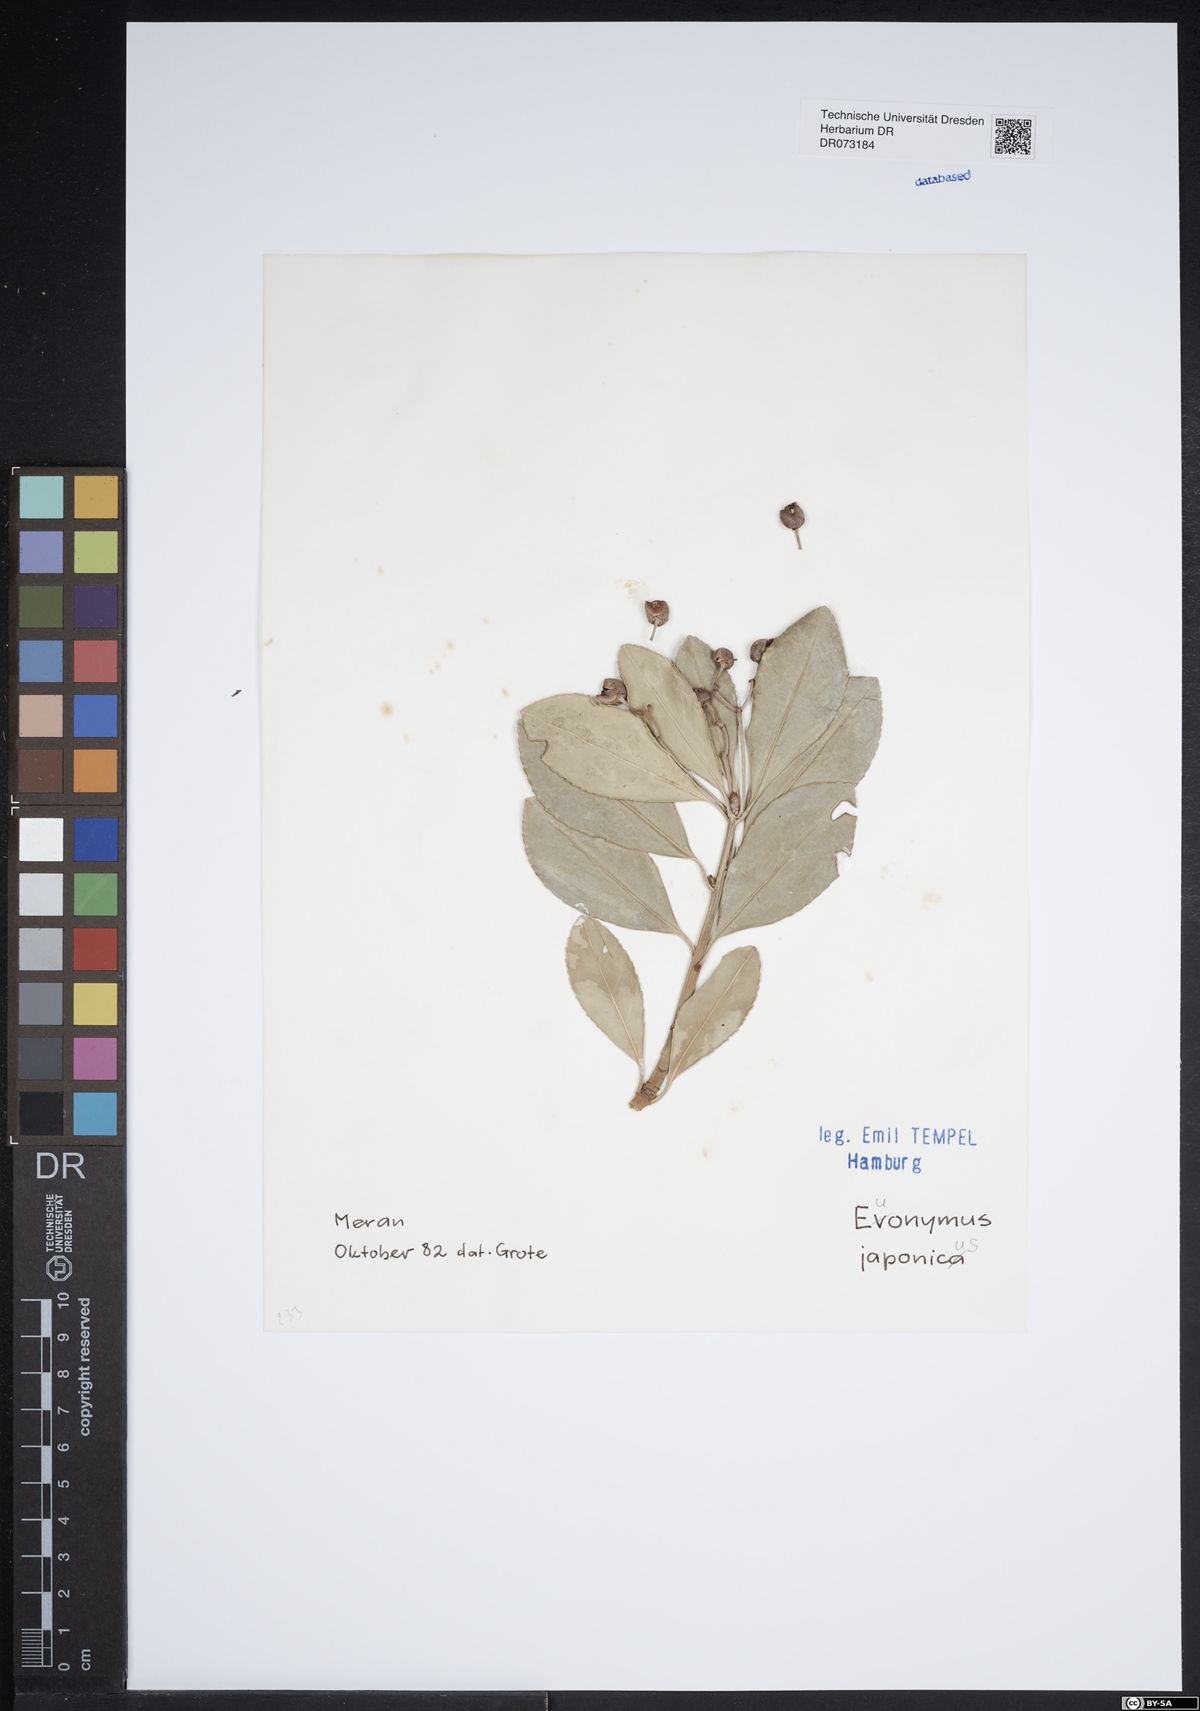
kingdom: Plantae
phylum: Tracheophyta
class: Magnoliopsida
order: Celastrales
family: Celastraceae
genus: Euonymus
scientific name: Euonymus fortunei
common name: Climbing euonymus
